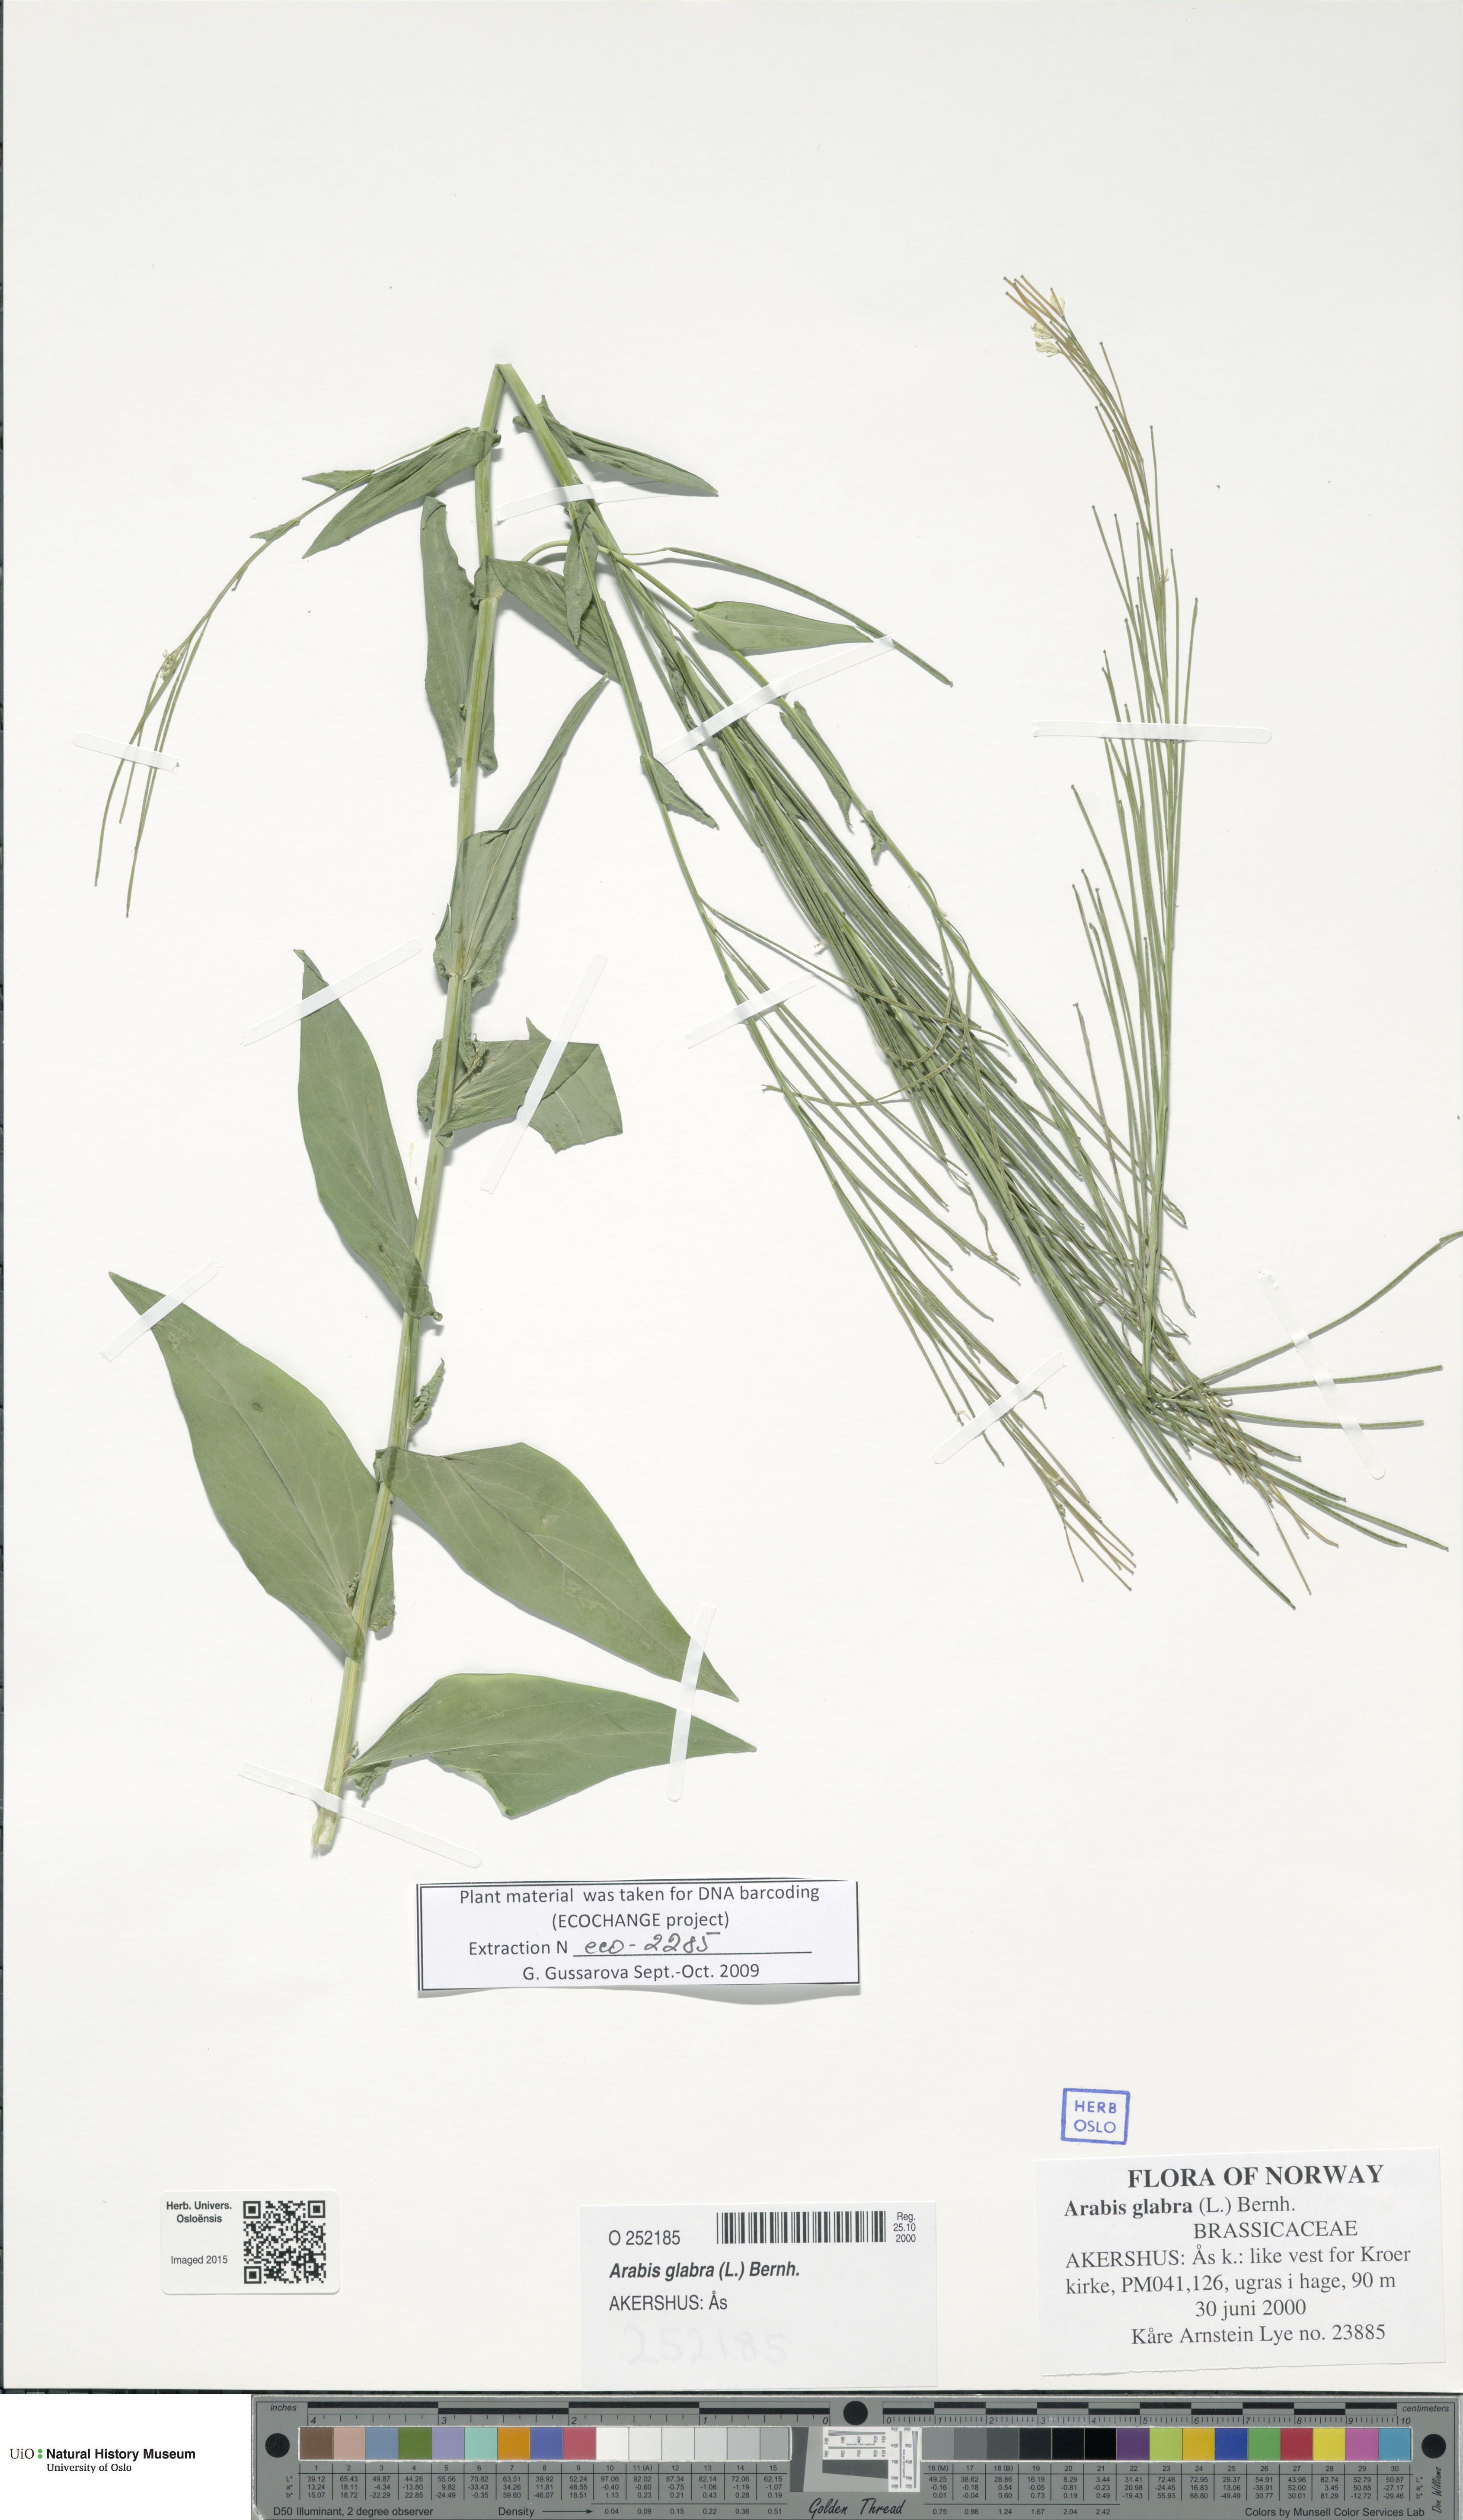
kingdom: Plantae
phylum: Tracheophyta
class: Magnoliopsida
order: Brassicales
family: Brassicaceae
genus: Turritis
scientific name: Turritis glabra
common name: Tower rockcress
